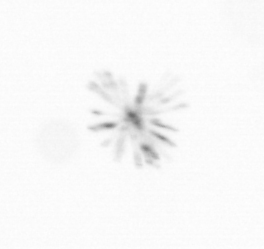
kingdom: Chromista
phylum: Ochrophyta
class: Bacillariophyceae
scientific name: Bacillariophyceae
